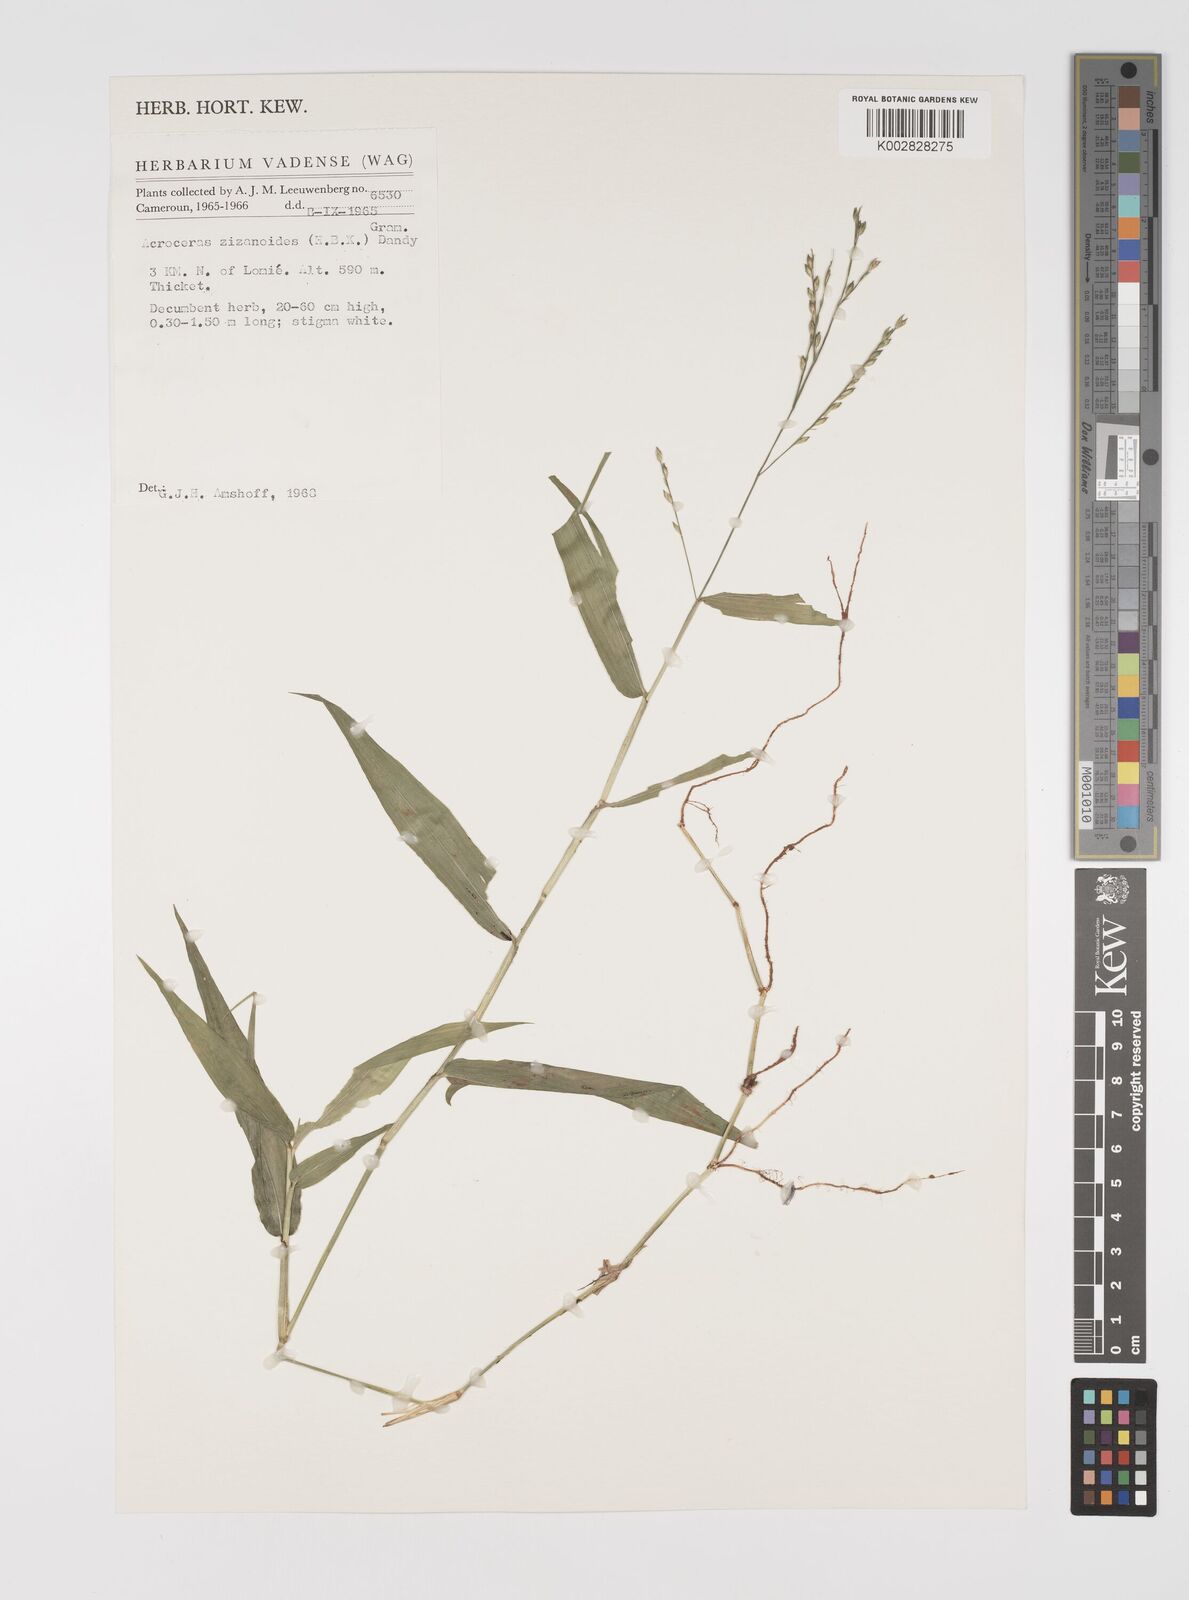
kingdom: Plantae
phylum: Tracheophyta
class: Liliopsida
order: Poales
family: Poaceae
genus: Acroceras
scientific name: Acroceras zizanioides
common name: Oat grass
